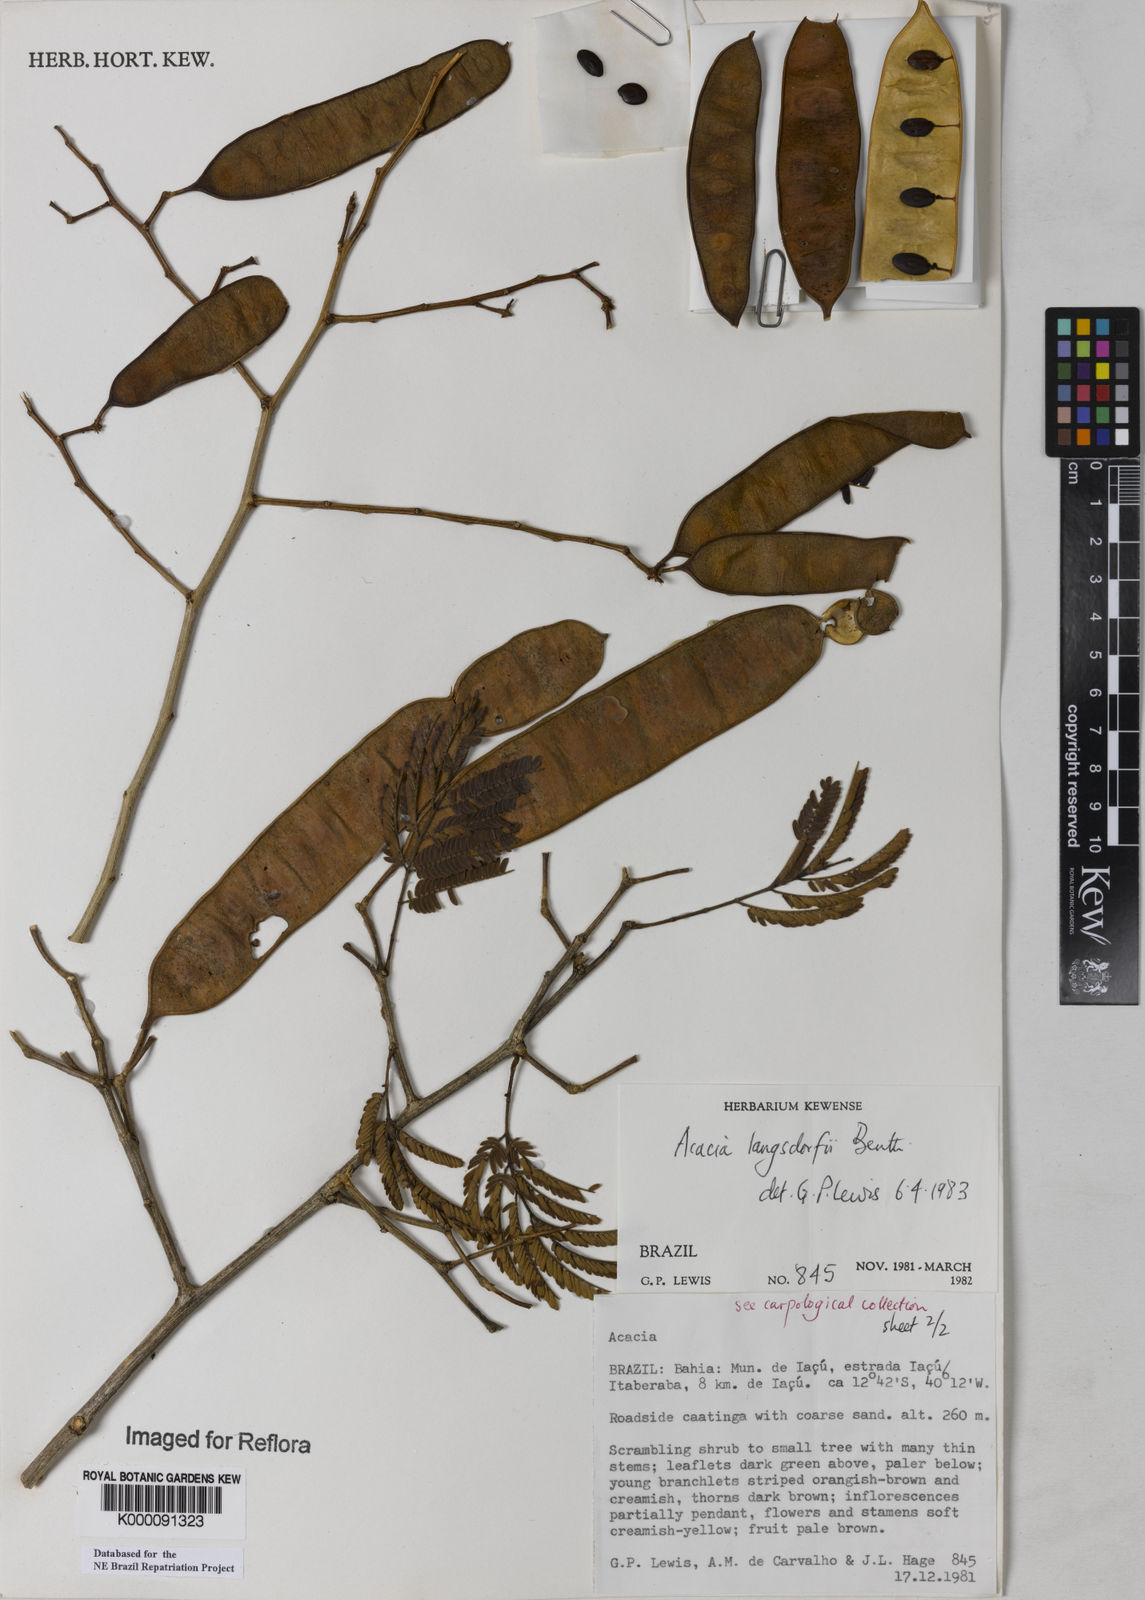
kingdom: Plantae
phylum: Tracheophyta
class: Magnoliopsida
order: Fabales
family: Fabaceae
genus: Senegalia
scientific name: Senegalia langsdorffii
